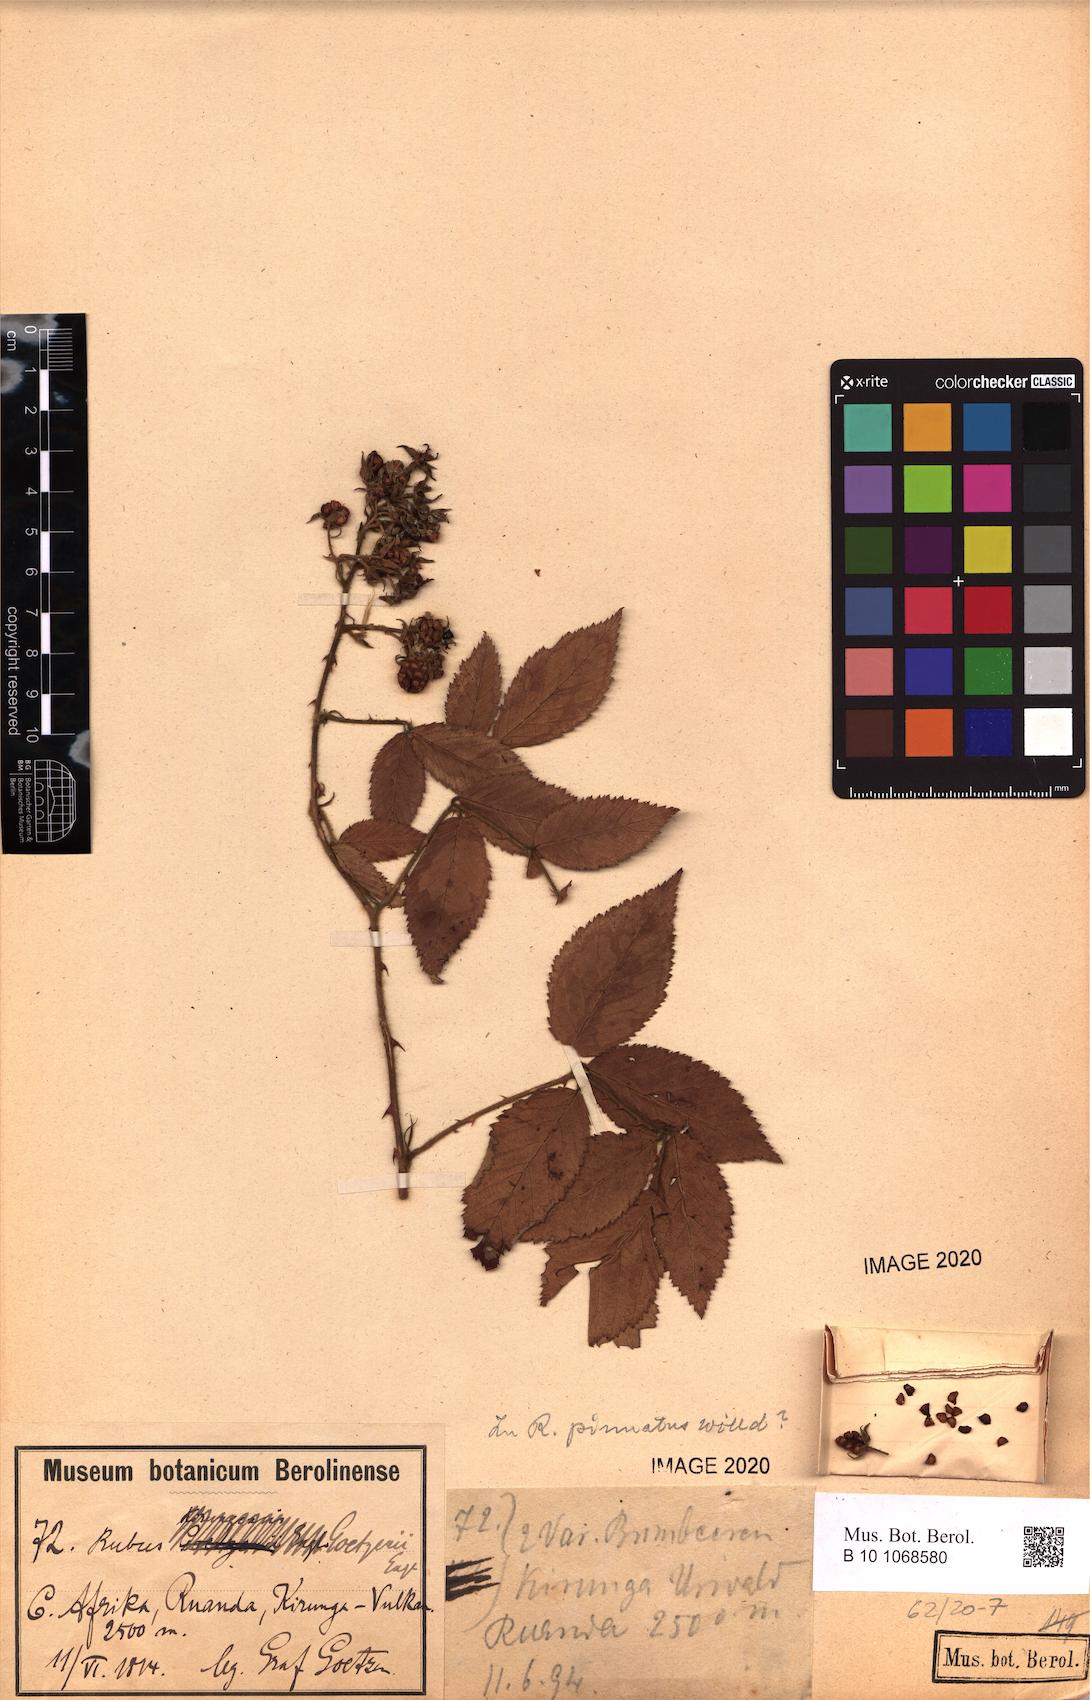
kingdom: Plantae
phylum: Tracheophyta
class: Magnoliopsida
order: Rosales
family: Rosaceae
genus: Rubus
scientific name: Rubus pinnatus
